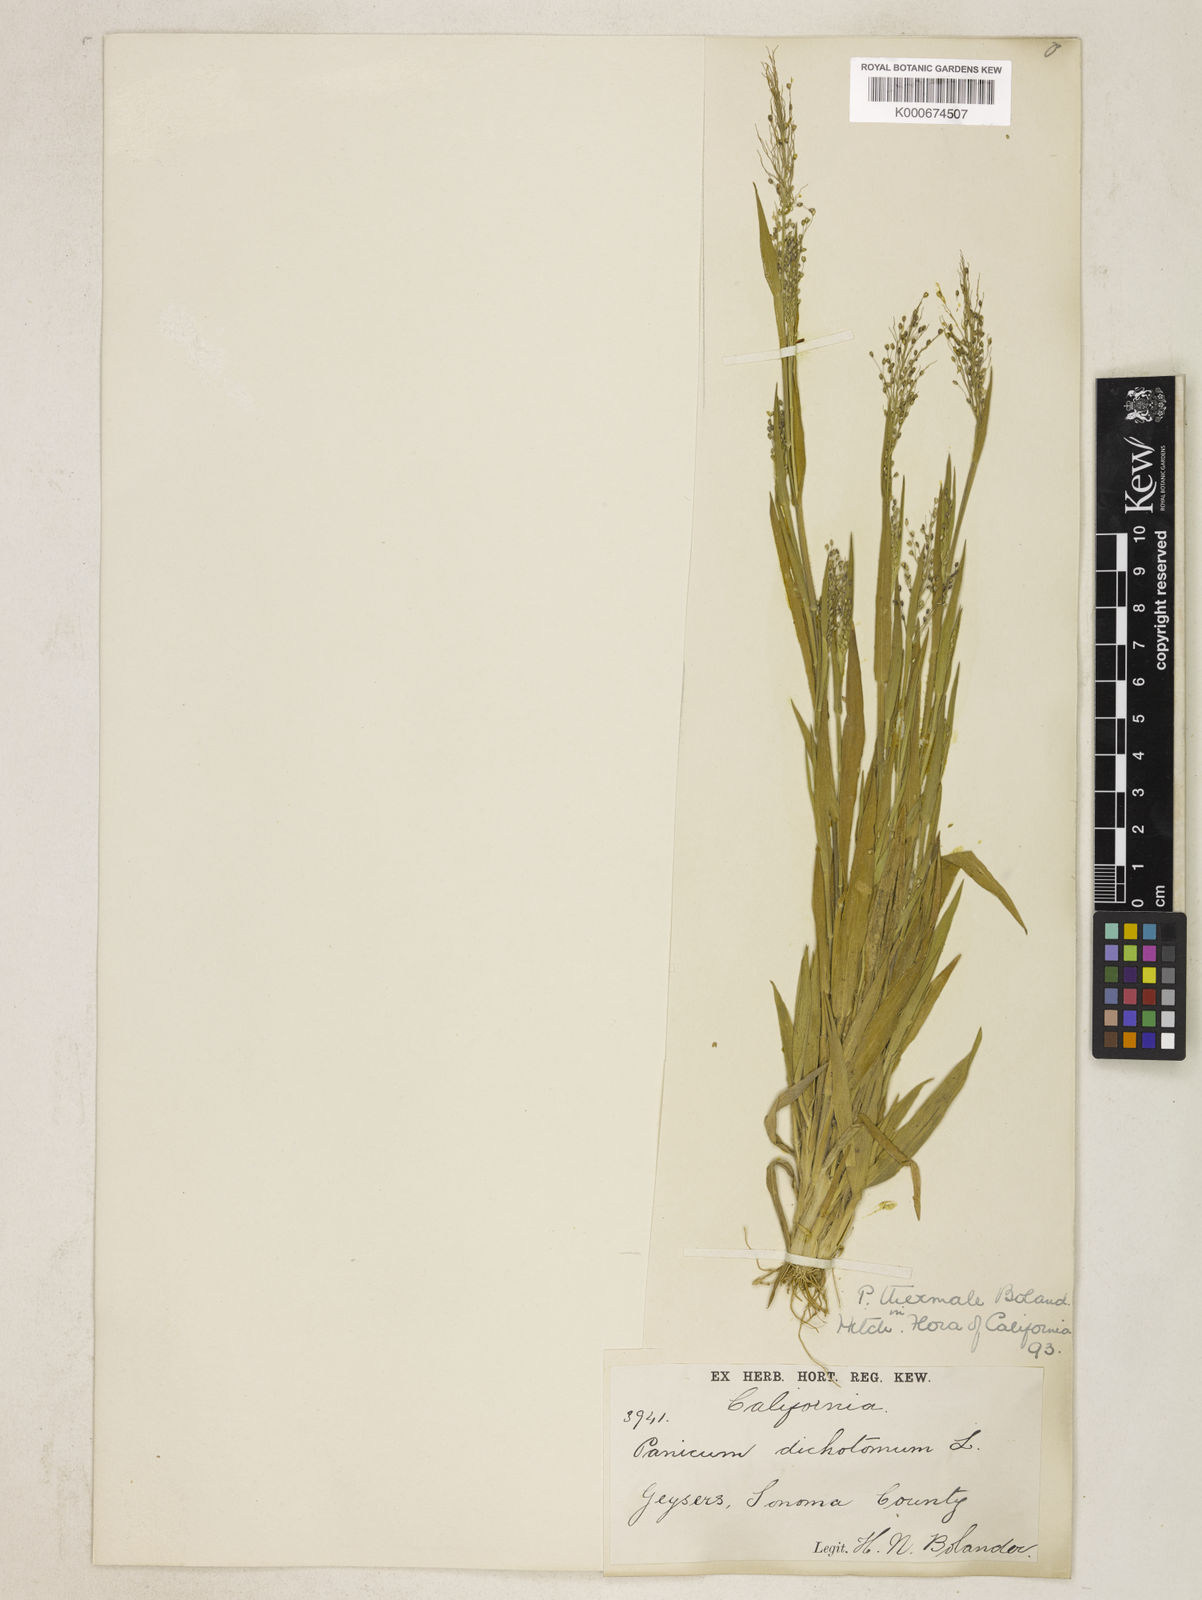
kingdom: Plantae
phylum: Tracheophyta
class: Liliopsida
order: Poales
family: Poaceae
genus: Dichanthelium
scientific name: Dichanthelium thermale
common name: Geyser panicgrass
